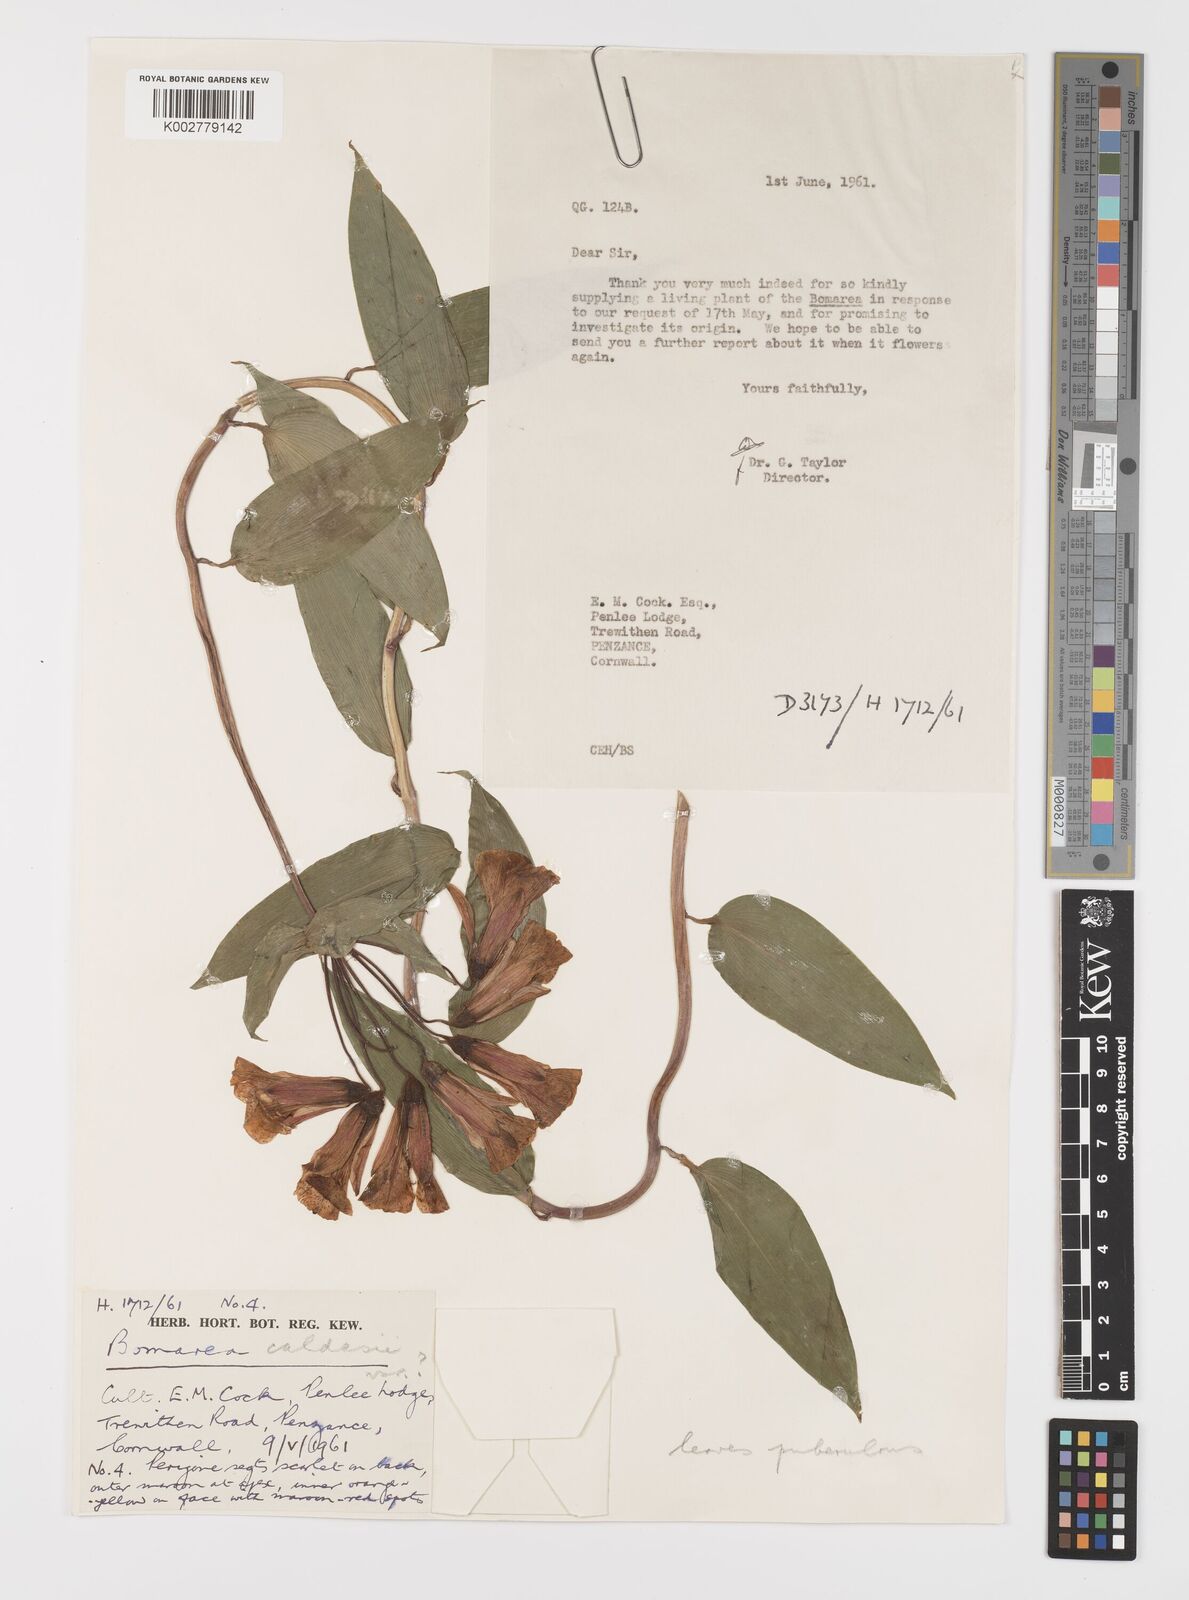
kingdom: Plantae
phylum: Tracheophyta
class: Liliopsida
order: Liliales
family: Alstroemeriaceae
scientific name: Alstroemeriaceae
